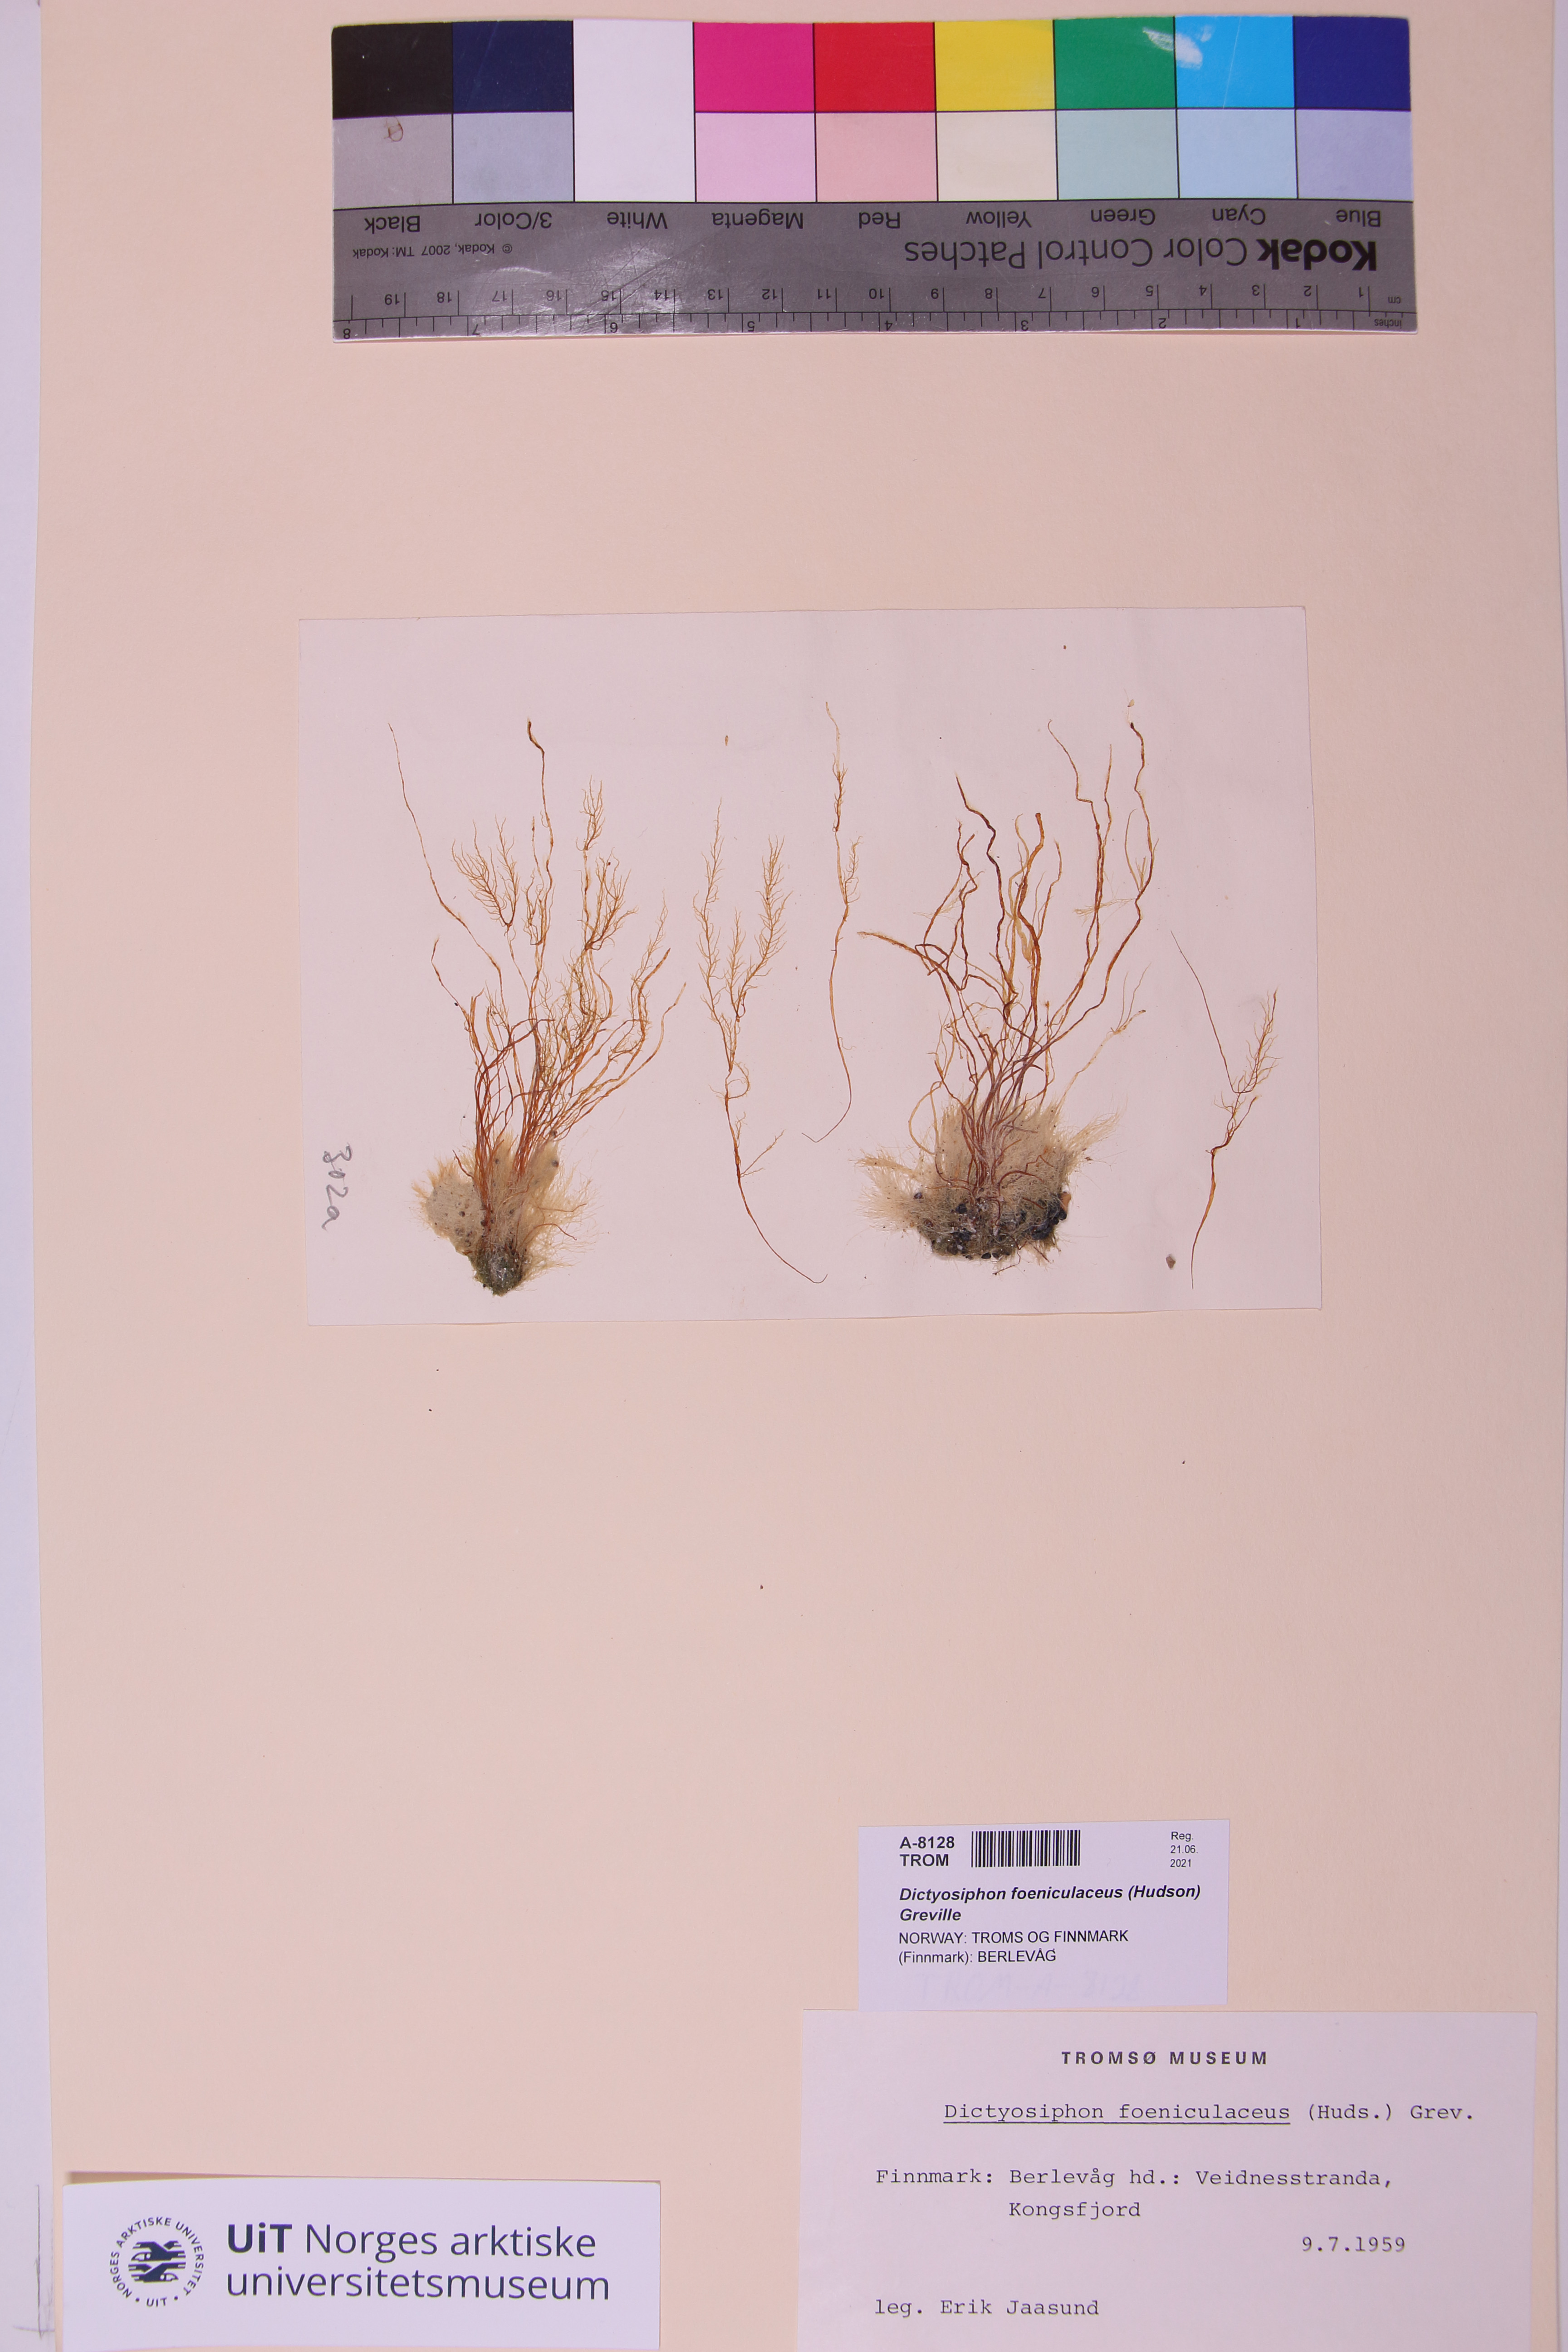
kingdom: Chromista
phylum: Ochrophyta
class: Phaeophyceae
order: Ectocarpales
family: Chordariaceae
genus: Dictyosiphon
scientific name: Dictyosiphon foeniculaceus
